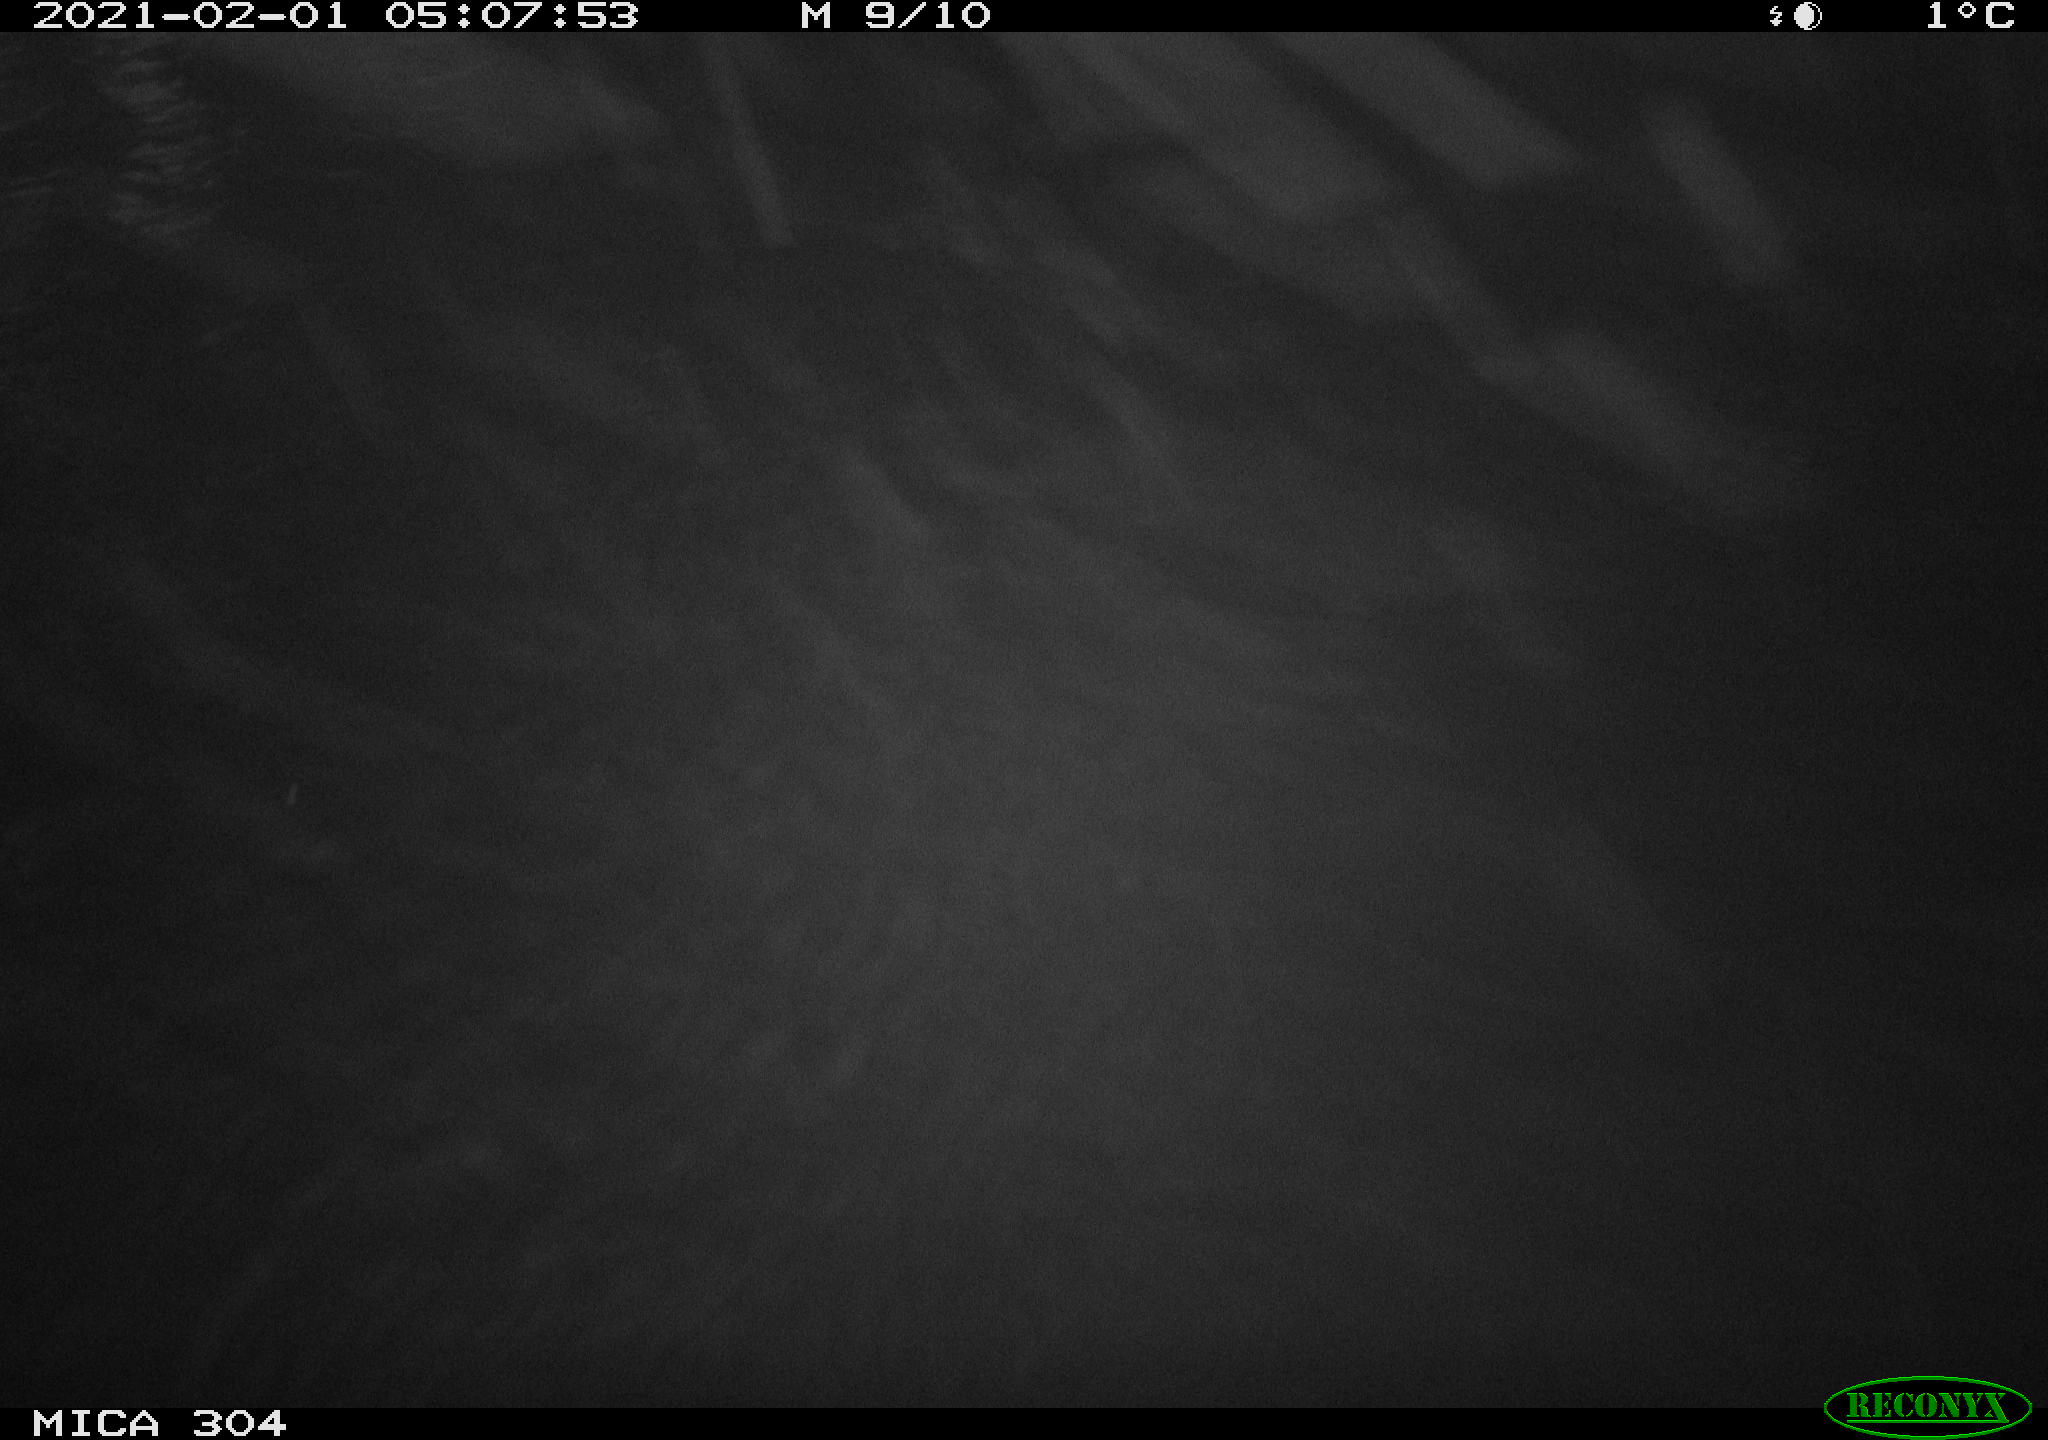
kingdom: Animalia
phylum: Chordata
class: Mammalia
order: Rodentia
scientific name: Rodentia
